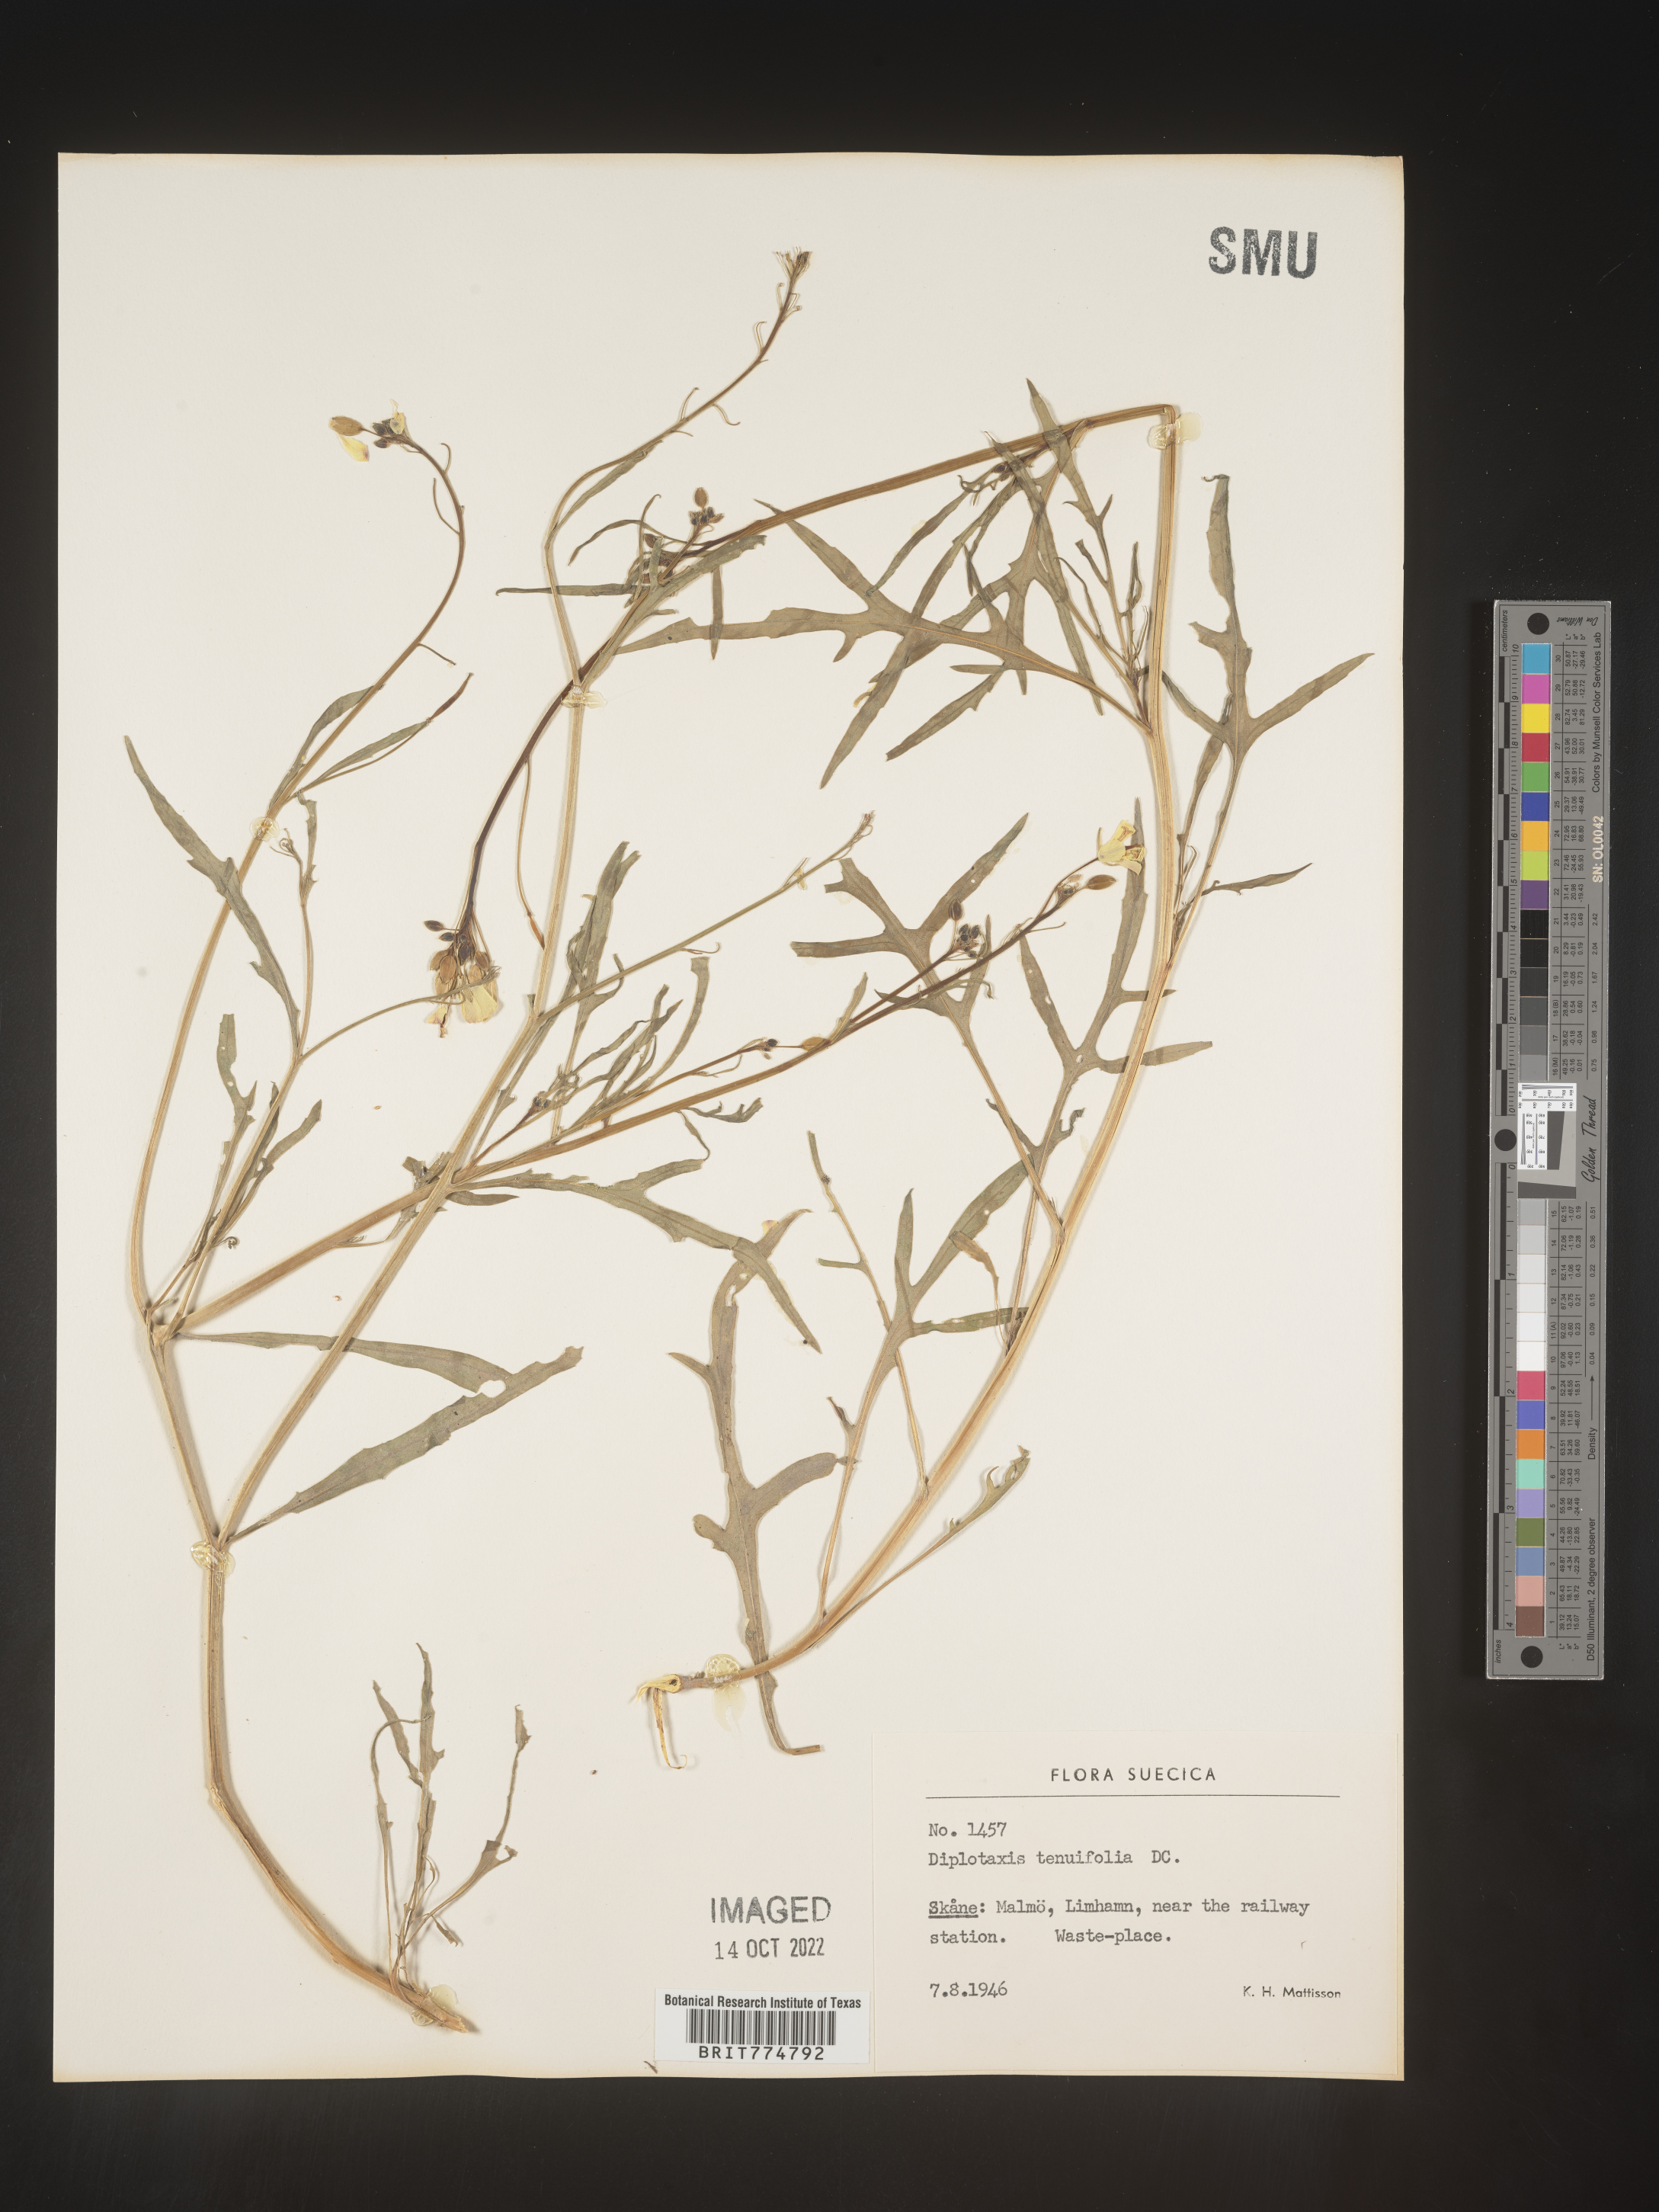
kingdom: Plantae
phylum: Tracheophyta
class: Magnoliopsida
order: Brassicales
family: Brassicaceae
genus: Diplotaxis
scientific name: Diplotaxis
